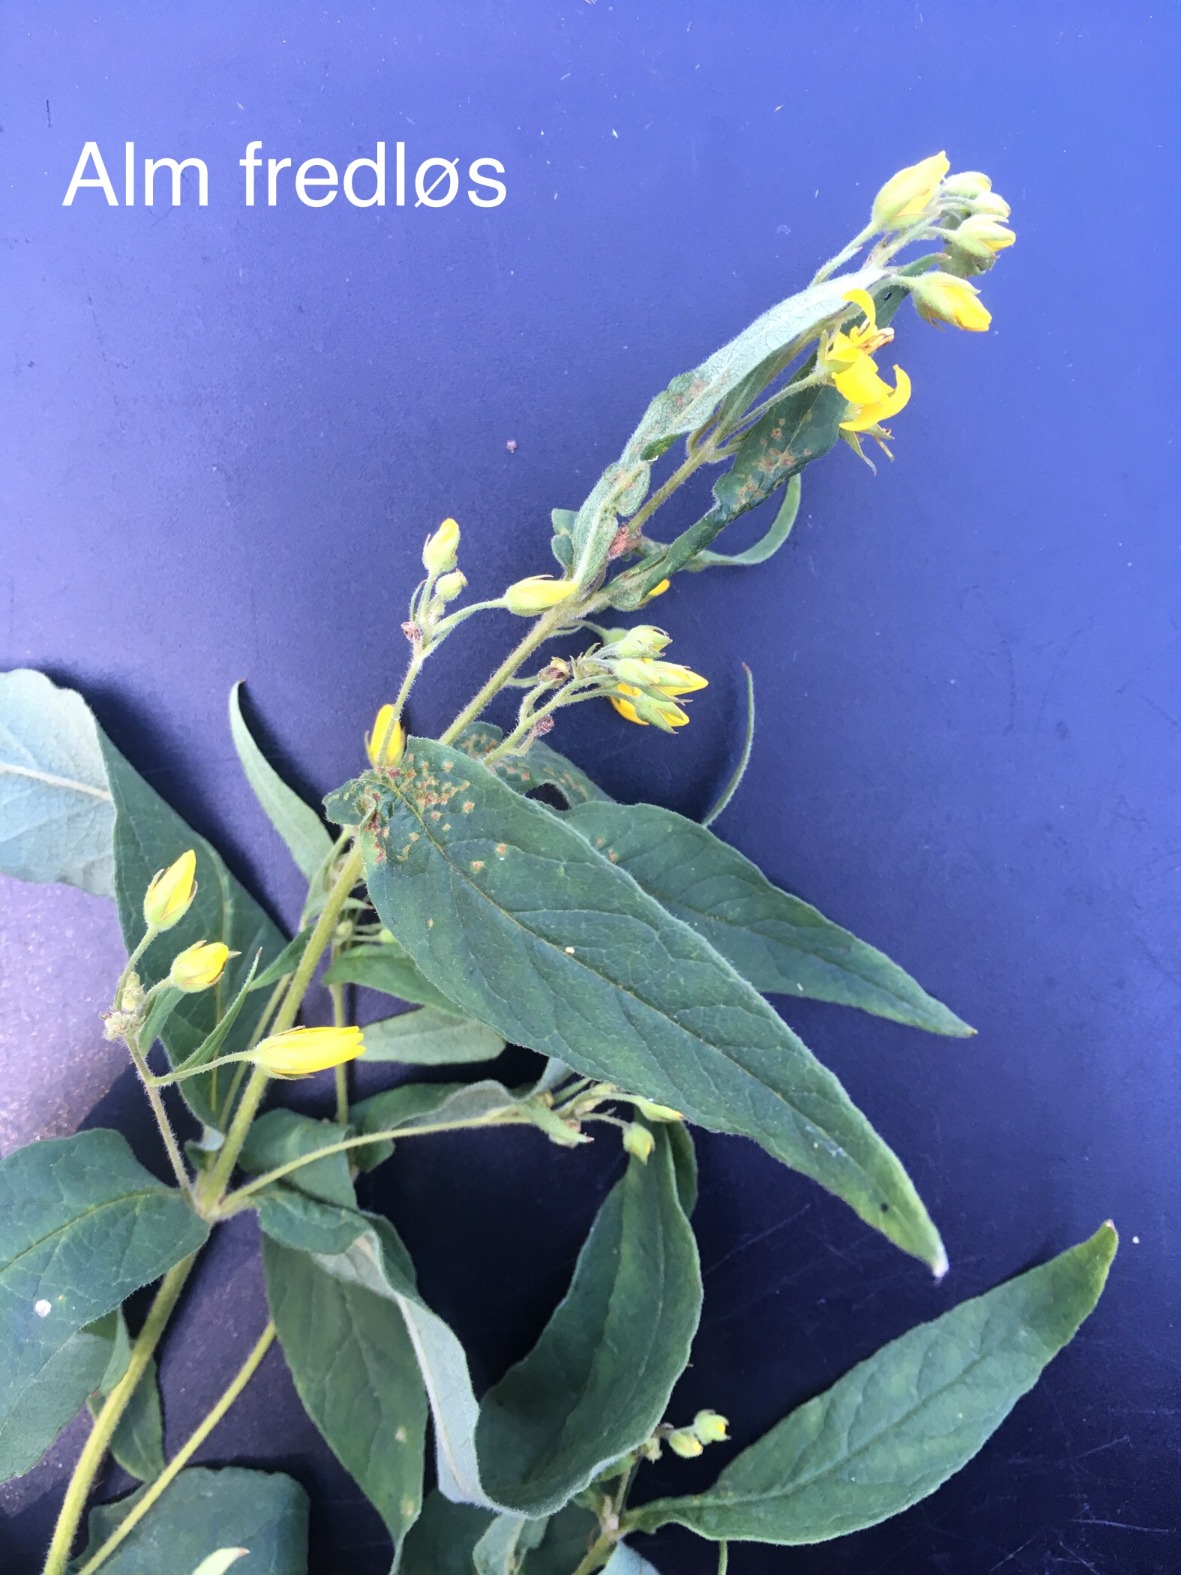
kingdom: Plantae
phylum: Tracheophyta
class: Magnoliopsida
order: Ericales
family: Primulaceae
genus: Lysimachia
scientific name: Lysimachia vulgaris
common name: Almindelig fredløs
